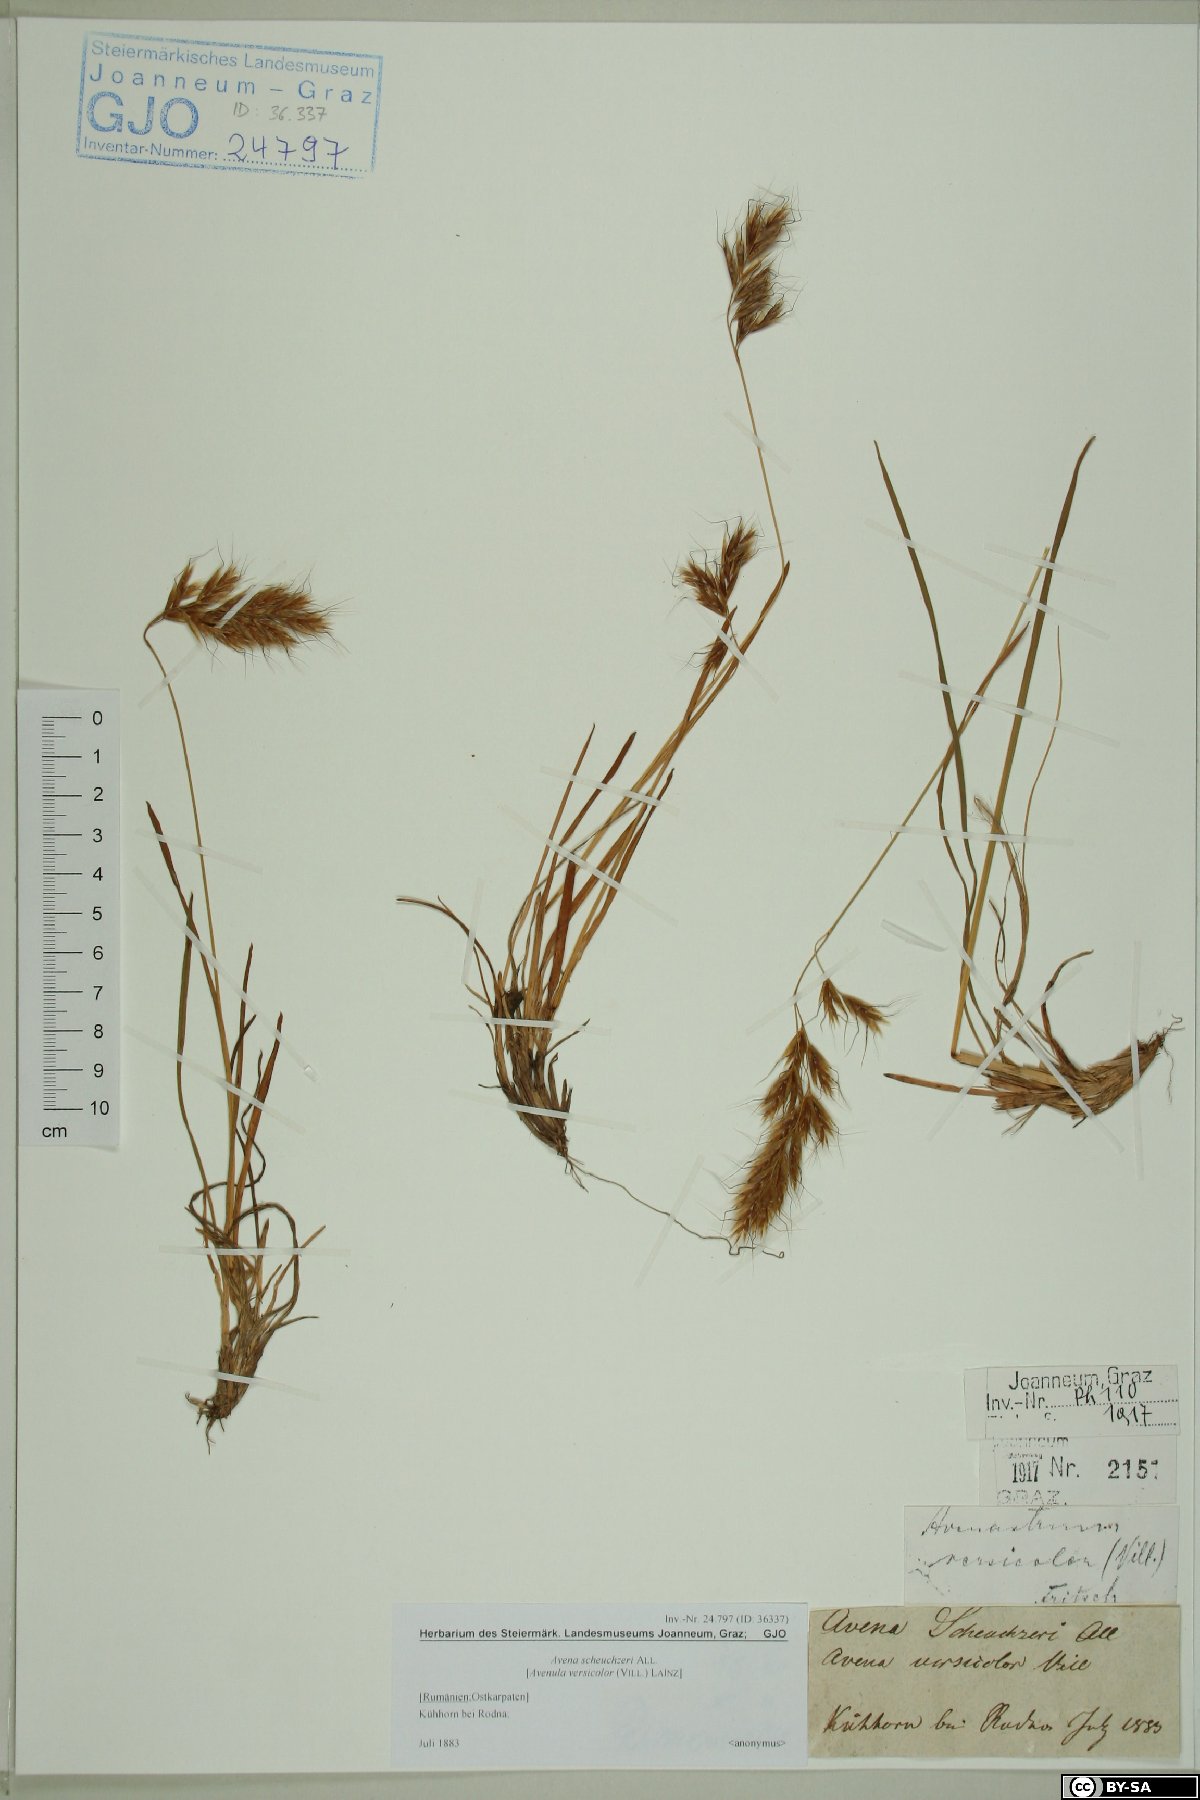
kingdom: Plantae
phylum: Tracheophyta
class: Liliopsida
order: Poales
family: Poaceae
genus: Helictochloa
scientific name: Helictochloa versicolor
